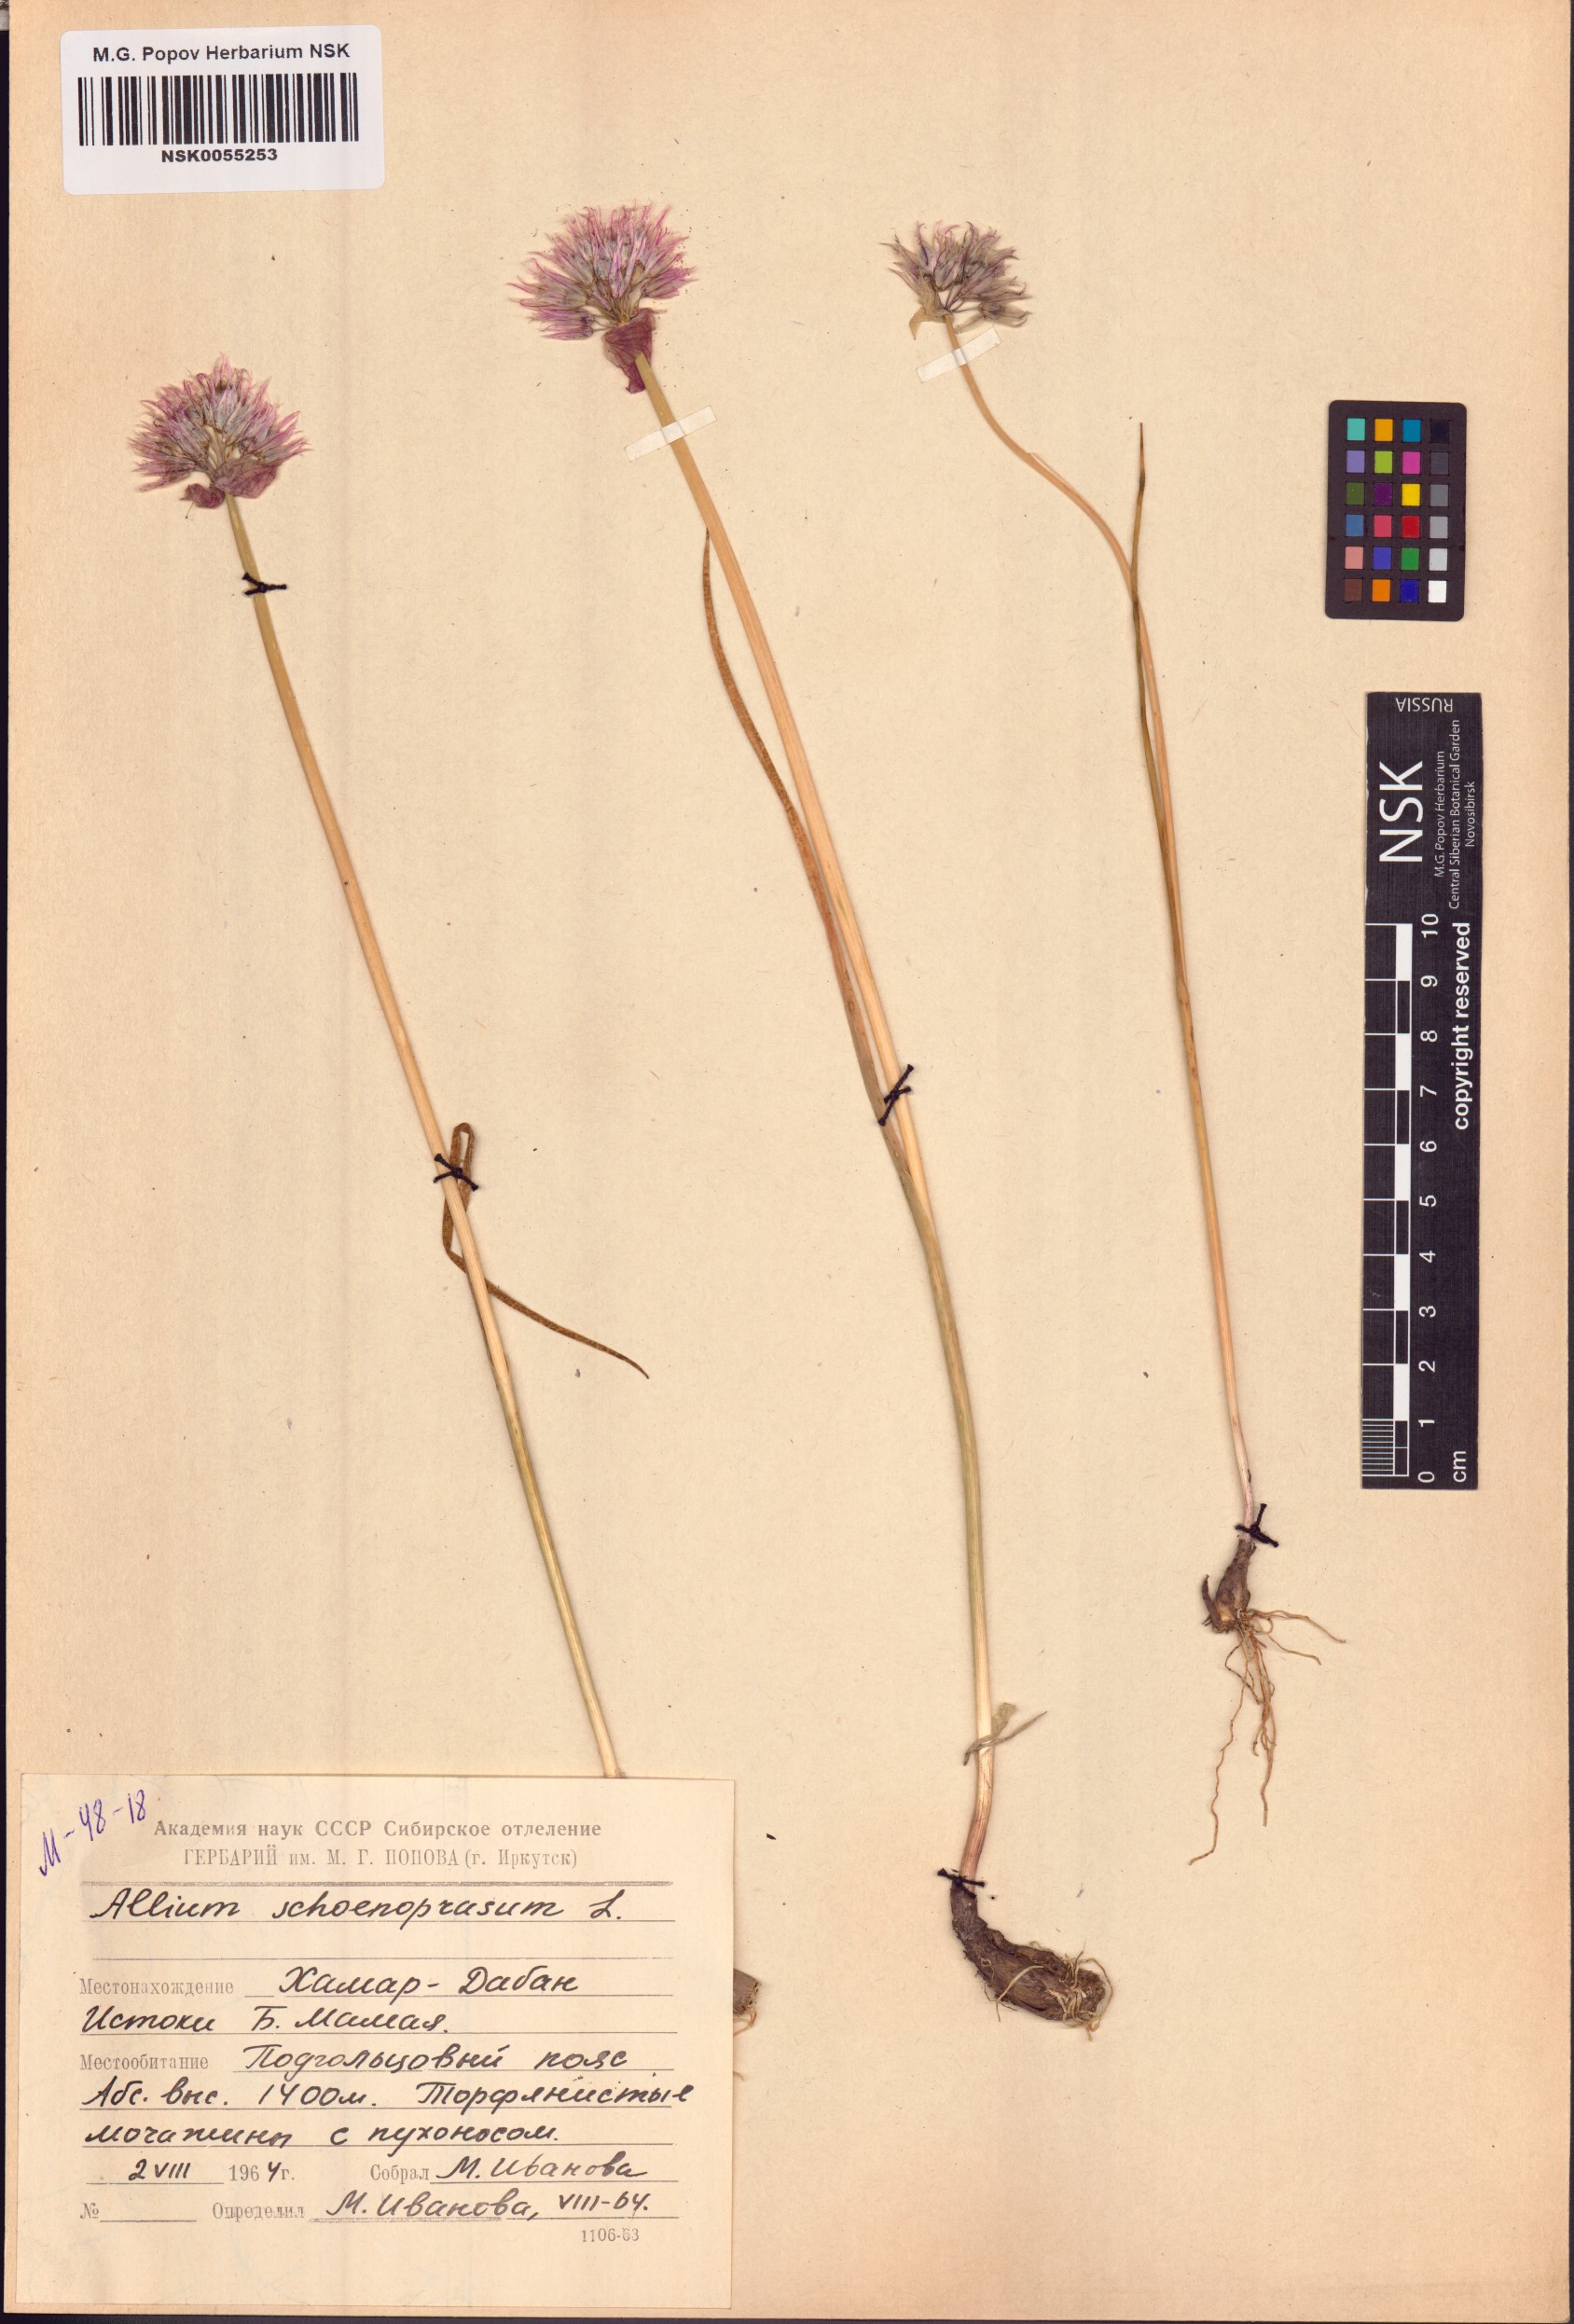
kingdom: Plantae
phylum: Tracheophyta
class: Liliopsida
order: Asparagales
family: Amaryllidaceae
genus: Allium
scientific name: Allium schoenoprasum
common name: Chives
